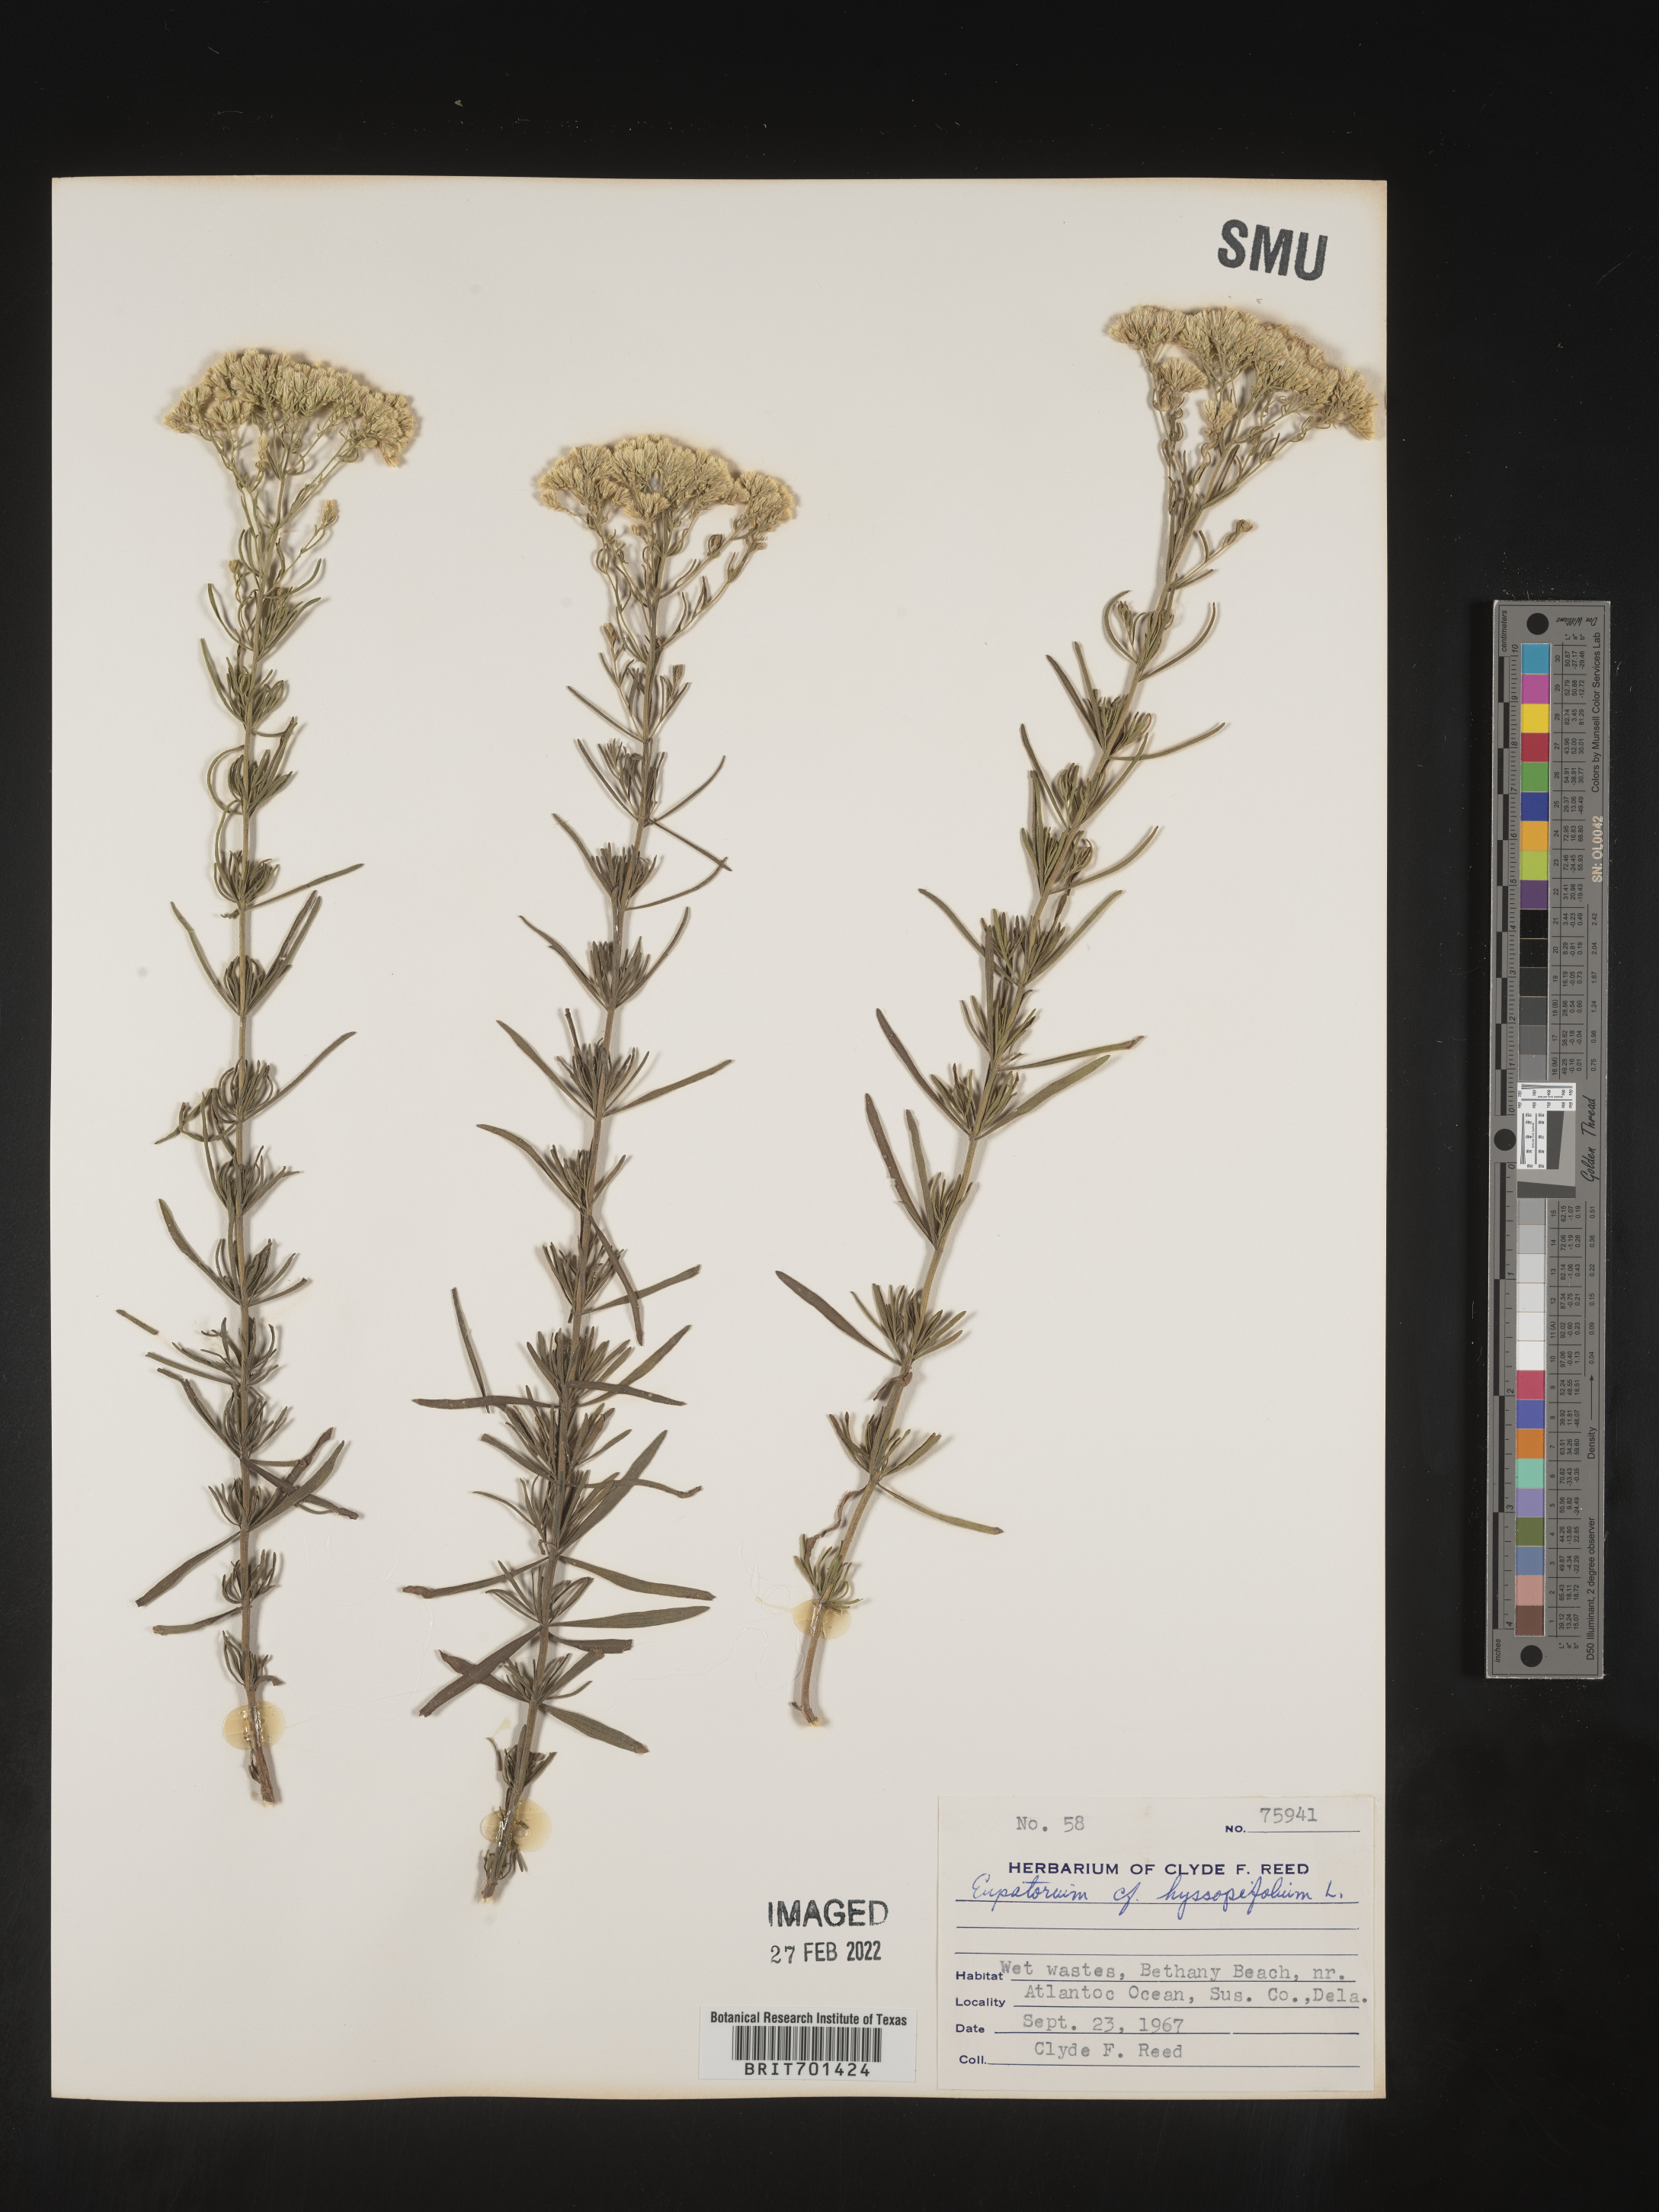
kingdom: Plantae
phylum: Tracheophyta
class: Magnoliopsida
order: Asterales
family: Asteraceae
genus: Eupatorium
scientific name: Eupatorium hyssopifolium
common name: Hyssop-leaf thoroughwort
